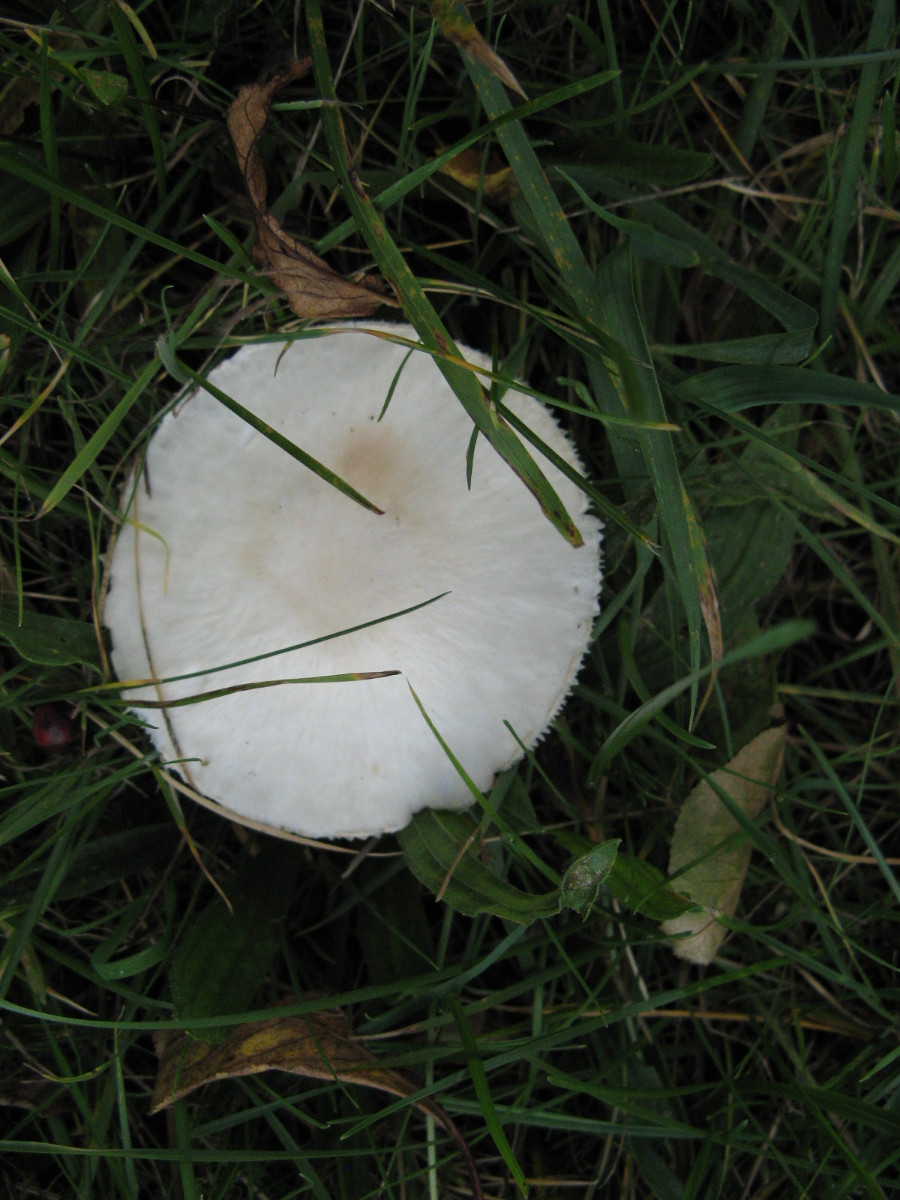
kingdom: Fungi
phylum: Basidiomycota
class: Agaricomycetes
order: Agaricales
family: Agaricaceae
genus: Leucoagaricus
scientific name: Leucoagaricus leucothites
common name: rosabladet silkehat
